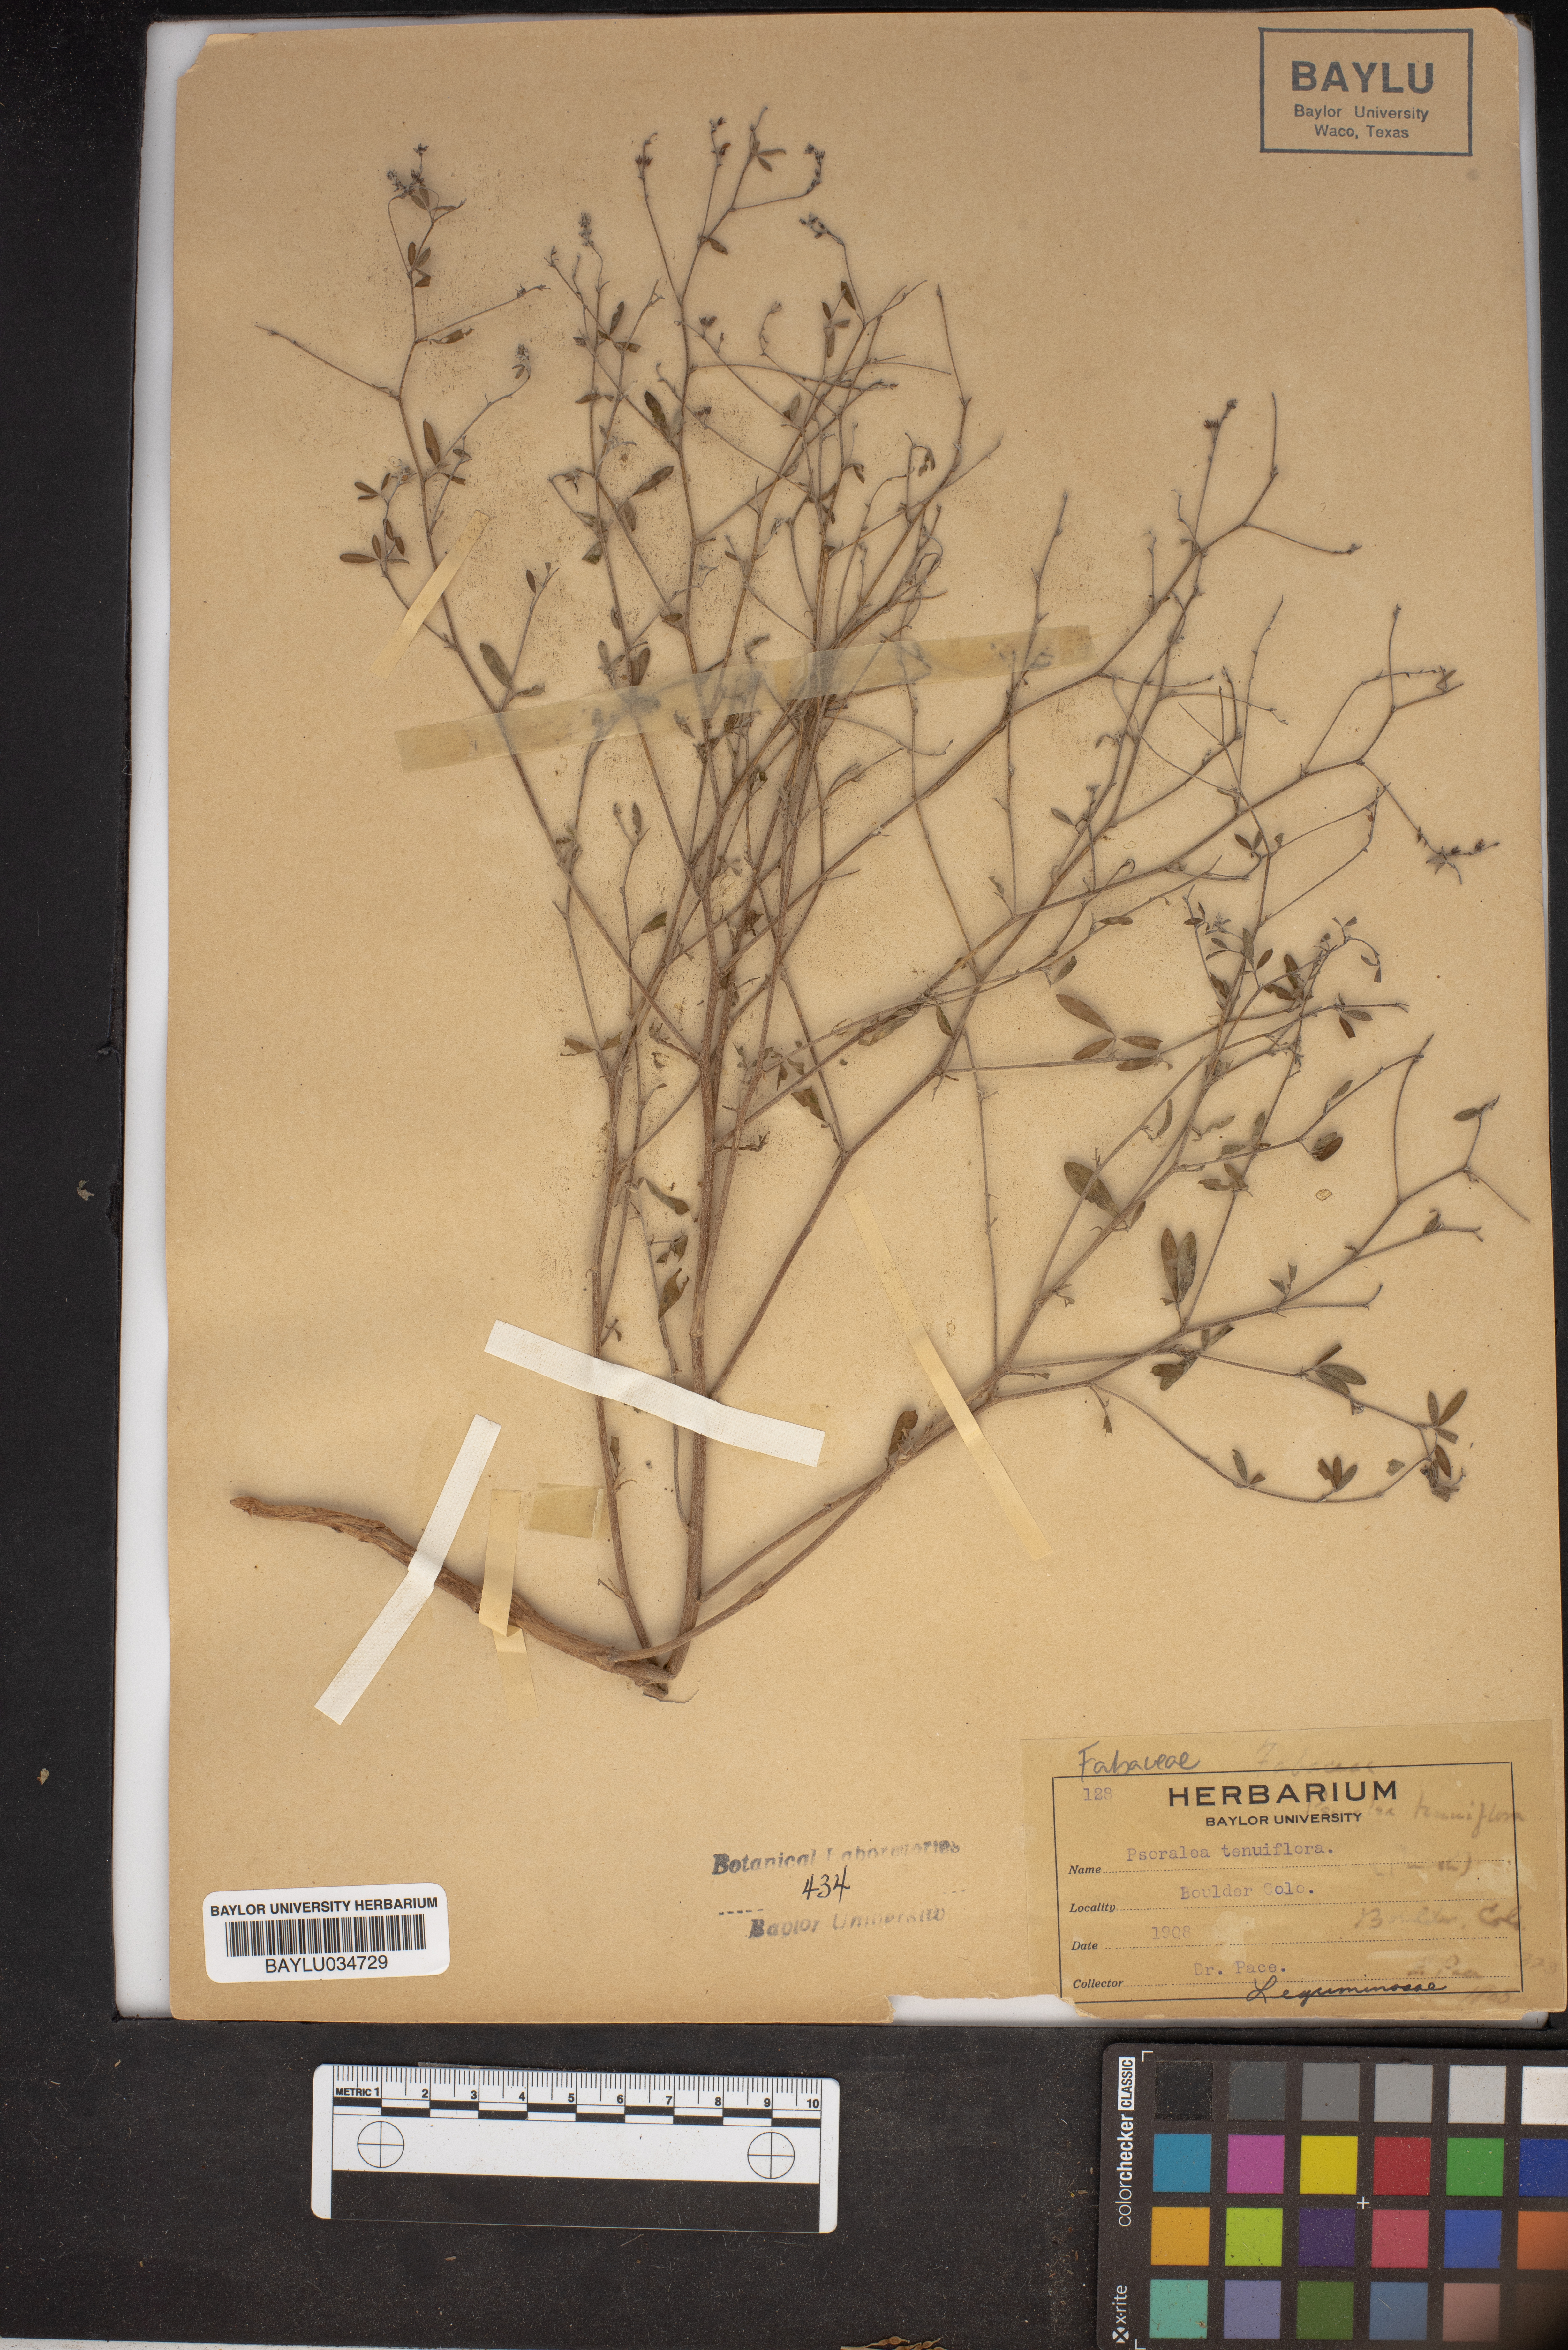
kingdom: Plantae
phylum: Tracheophyta
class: Magnoliopsida
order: Fabales
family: Fabaceae
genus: Pediomelum
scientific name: Pediomelum tenuiflorum
